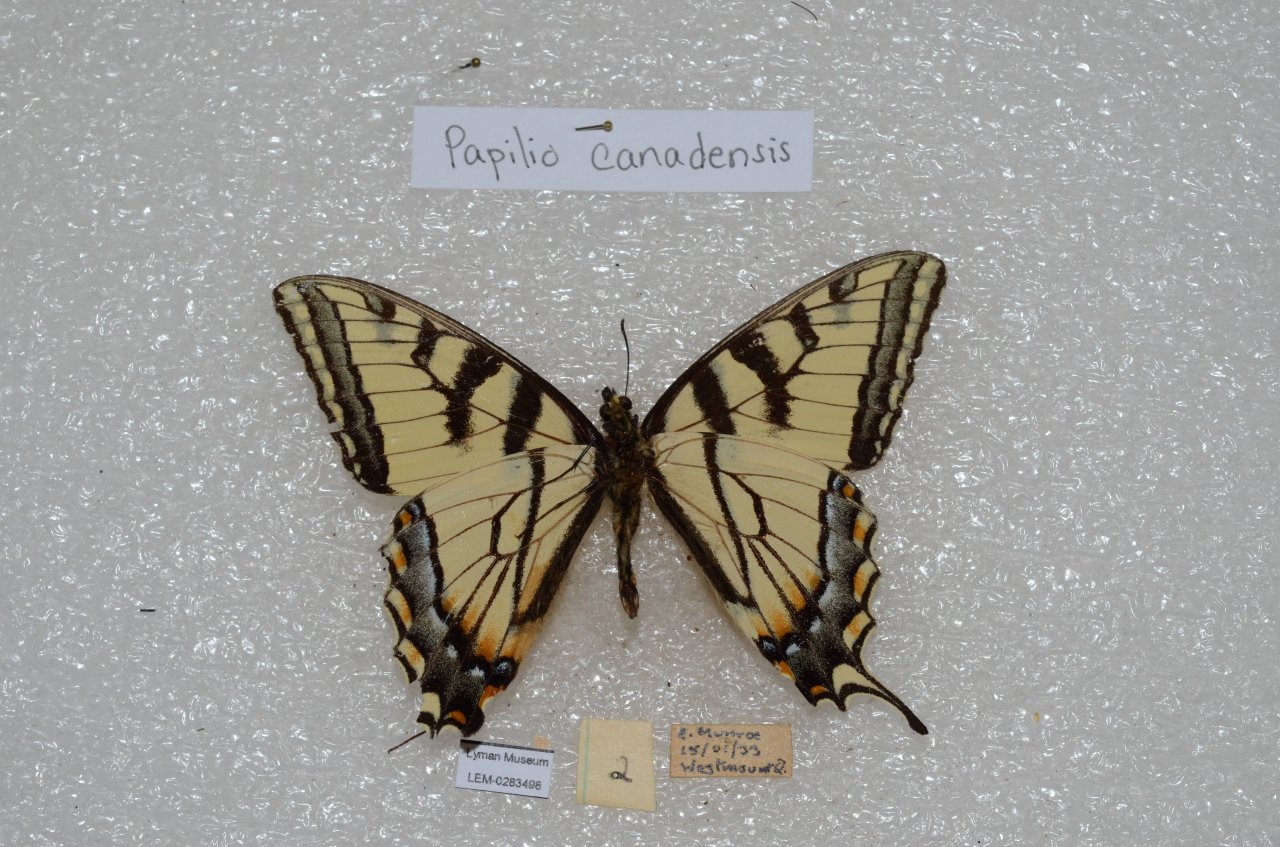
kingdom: Animalia
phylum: Arthropoda
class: Insecta
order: Lepidoptera
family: Papilionidae
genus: Pterourus
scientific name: Pterourus canadensis
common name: Canadian Tiger Swallowtail
